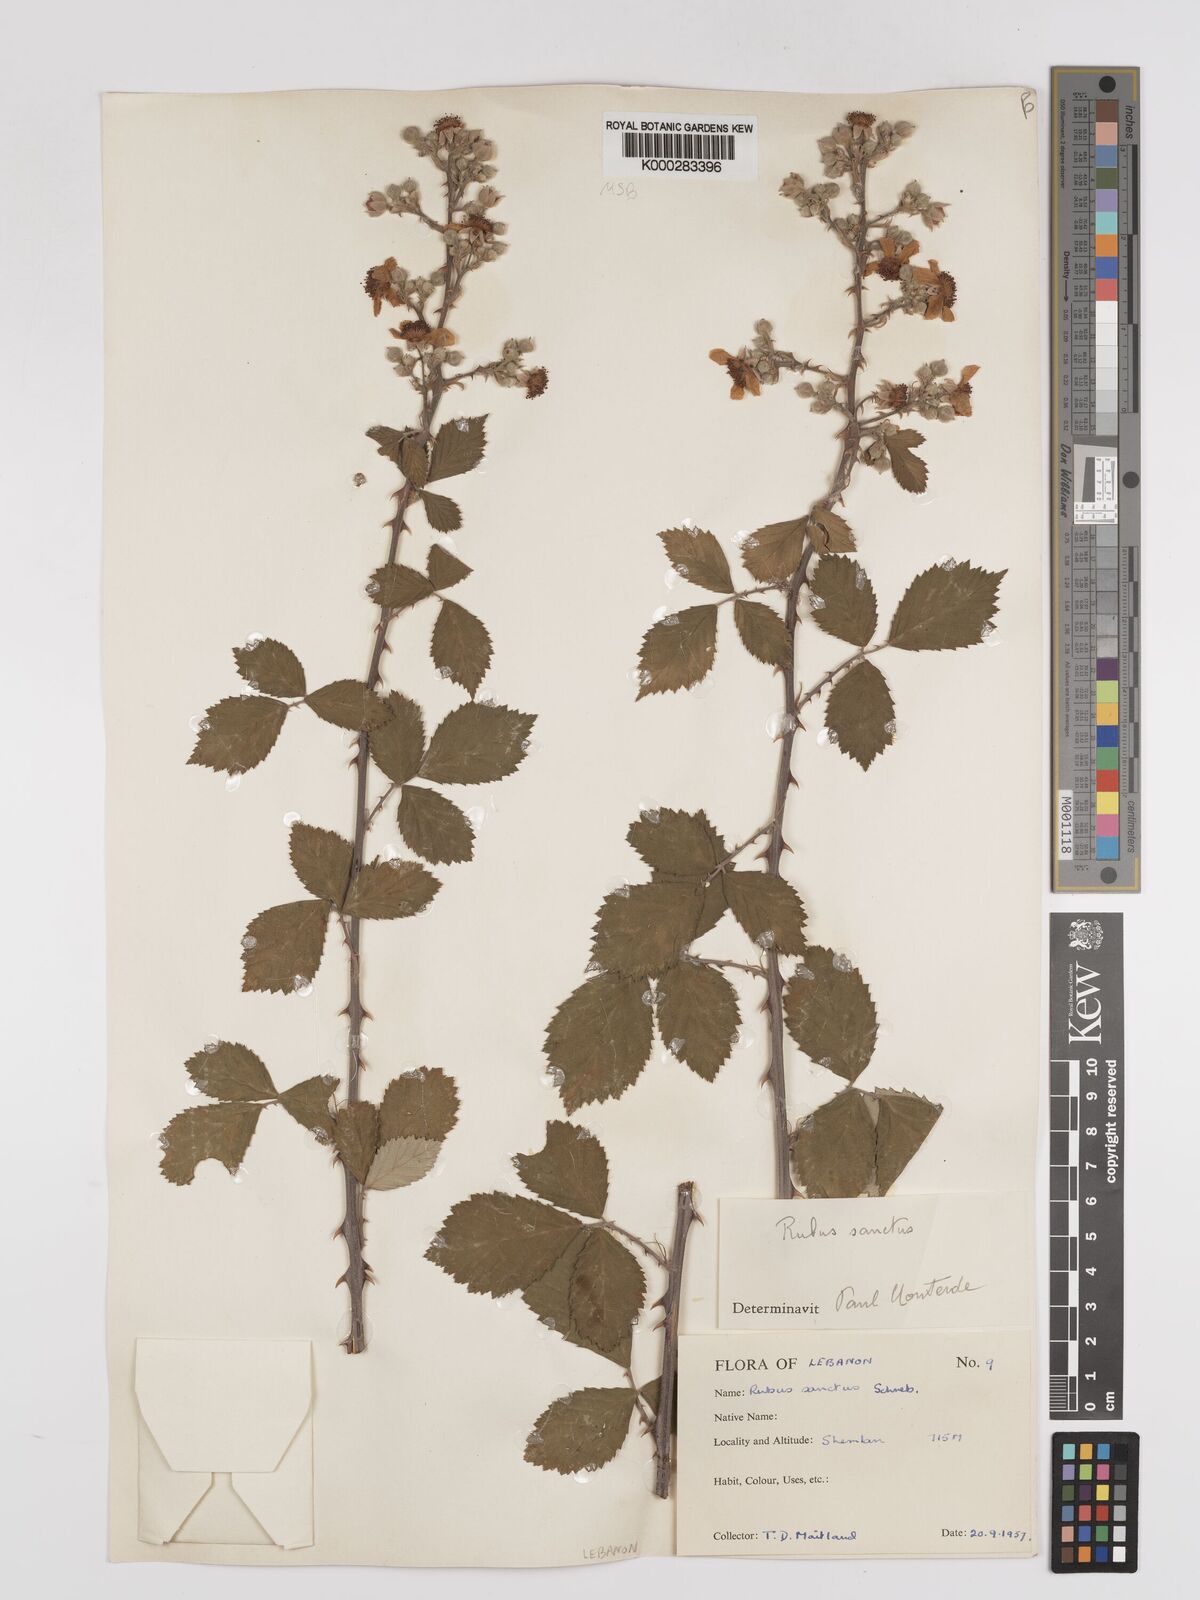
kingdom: Plantae
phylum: Tracheophyta
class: Magnoliopsida
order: Rosales
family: Rosaceae
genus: Rubus
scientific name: Rubus sanctus
